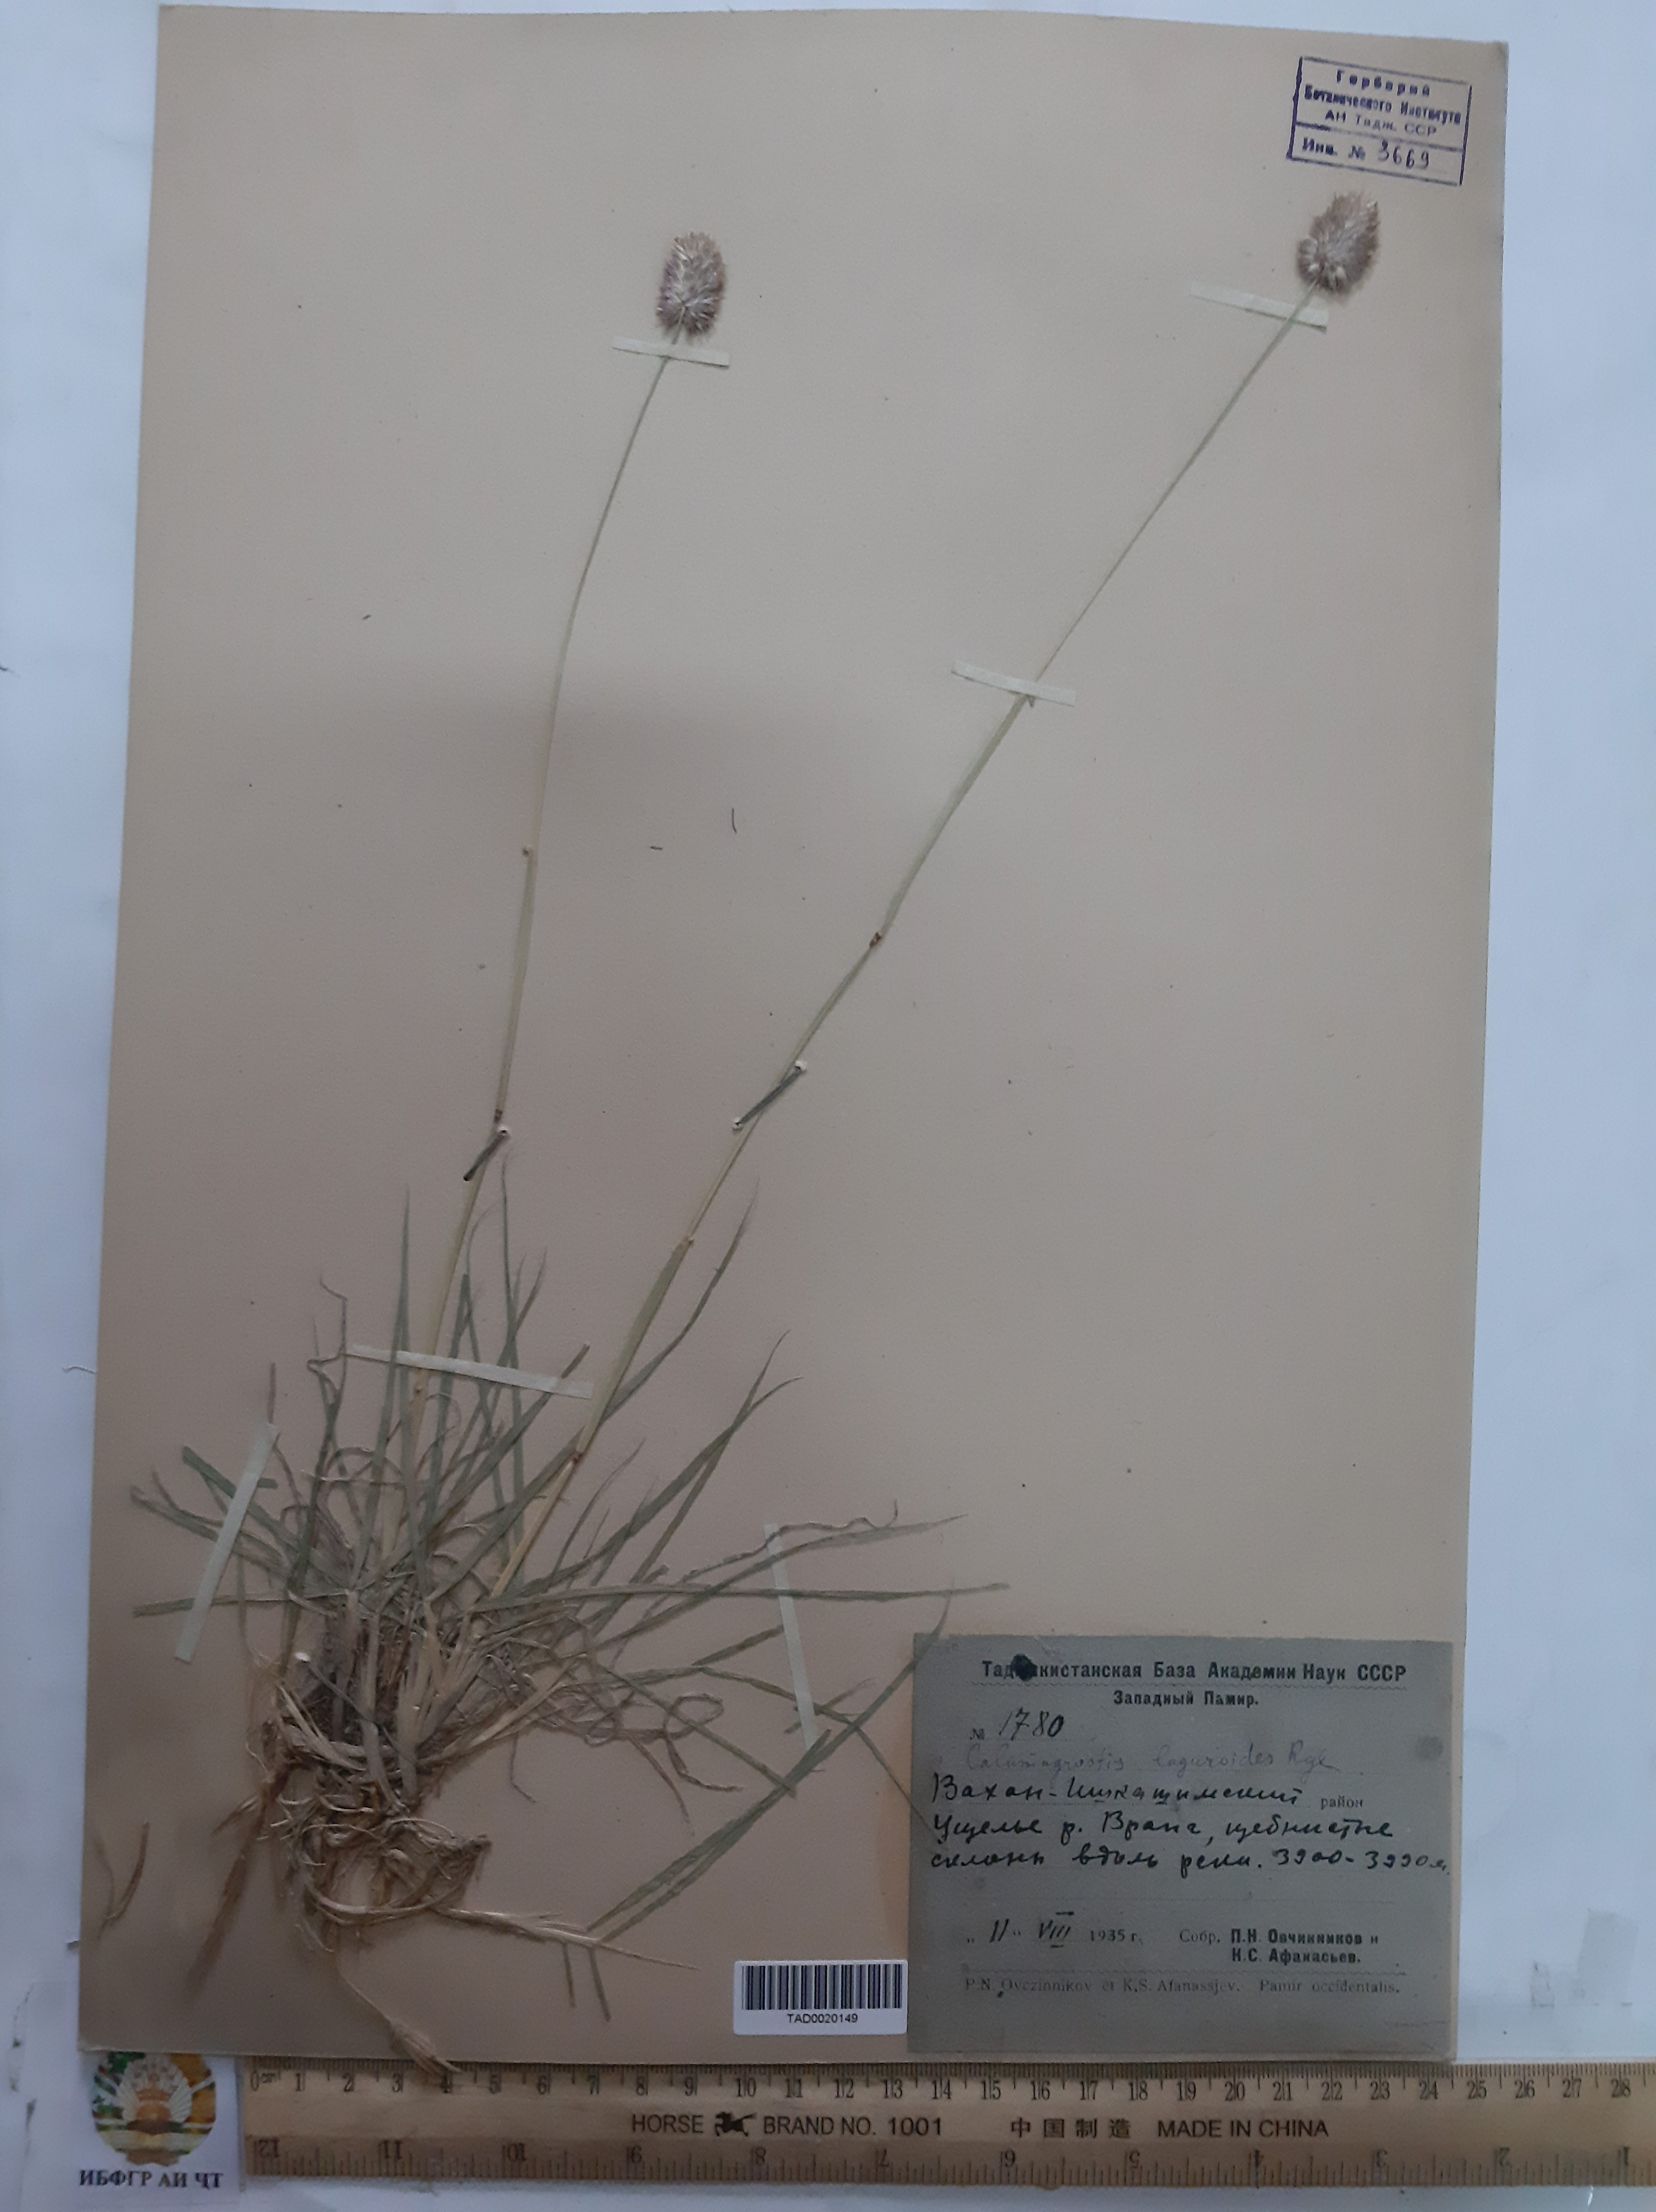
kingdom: Plantae
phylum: Tracheophyta
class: Liliopsida
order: Poales
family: Poaceae
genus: Calamagrostis
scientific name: Calamagrostis anthoxanthoides
